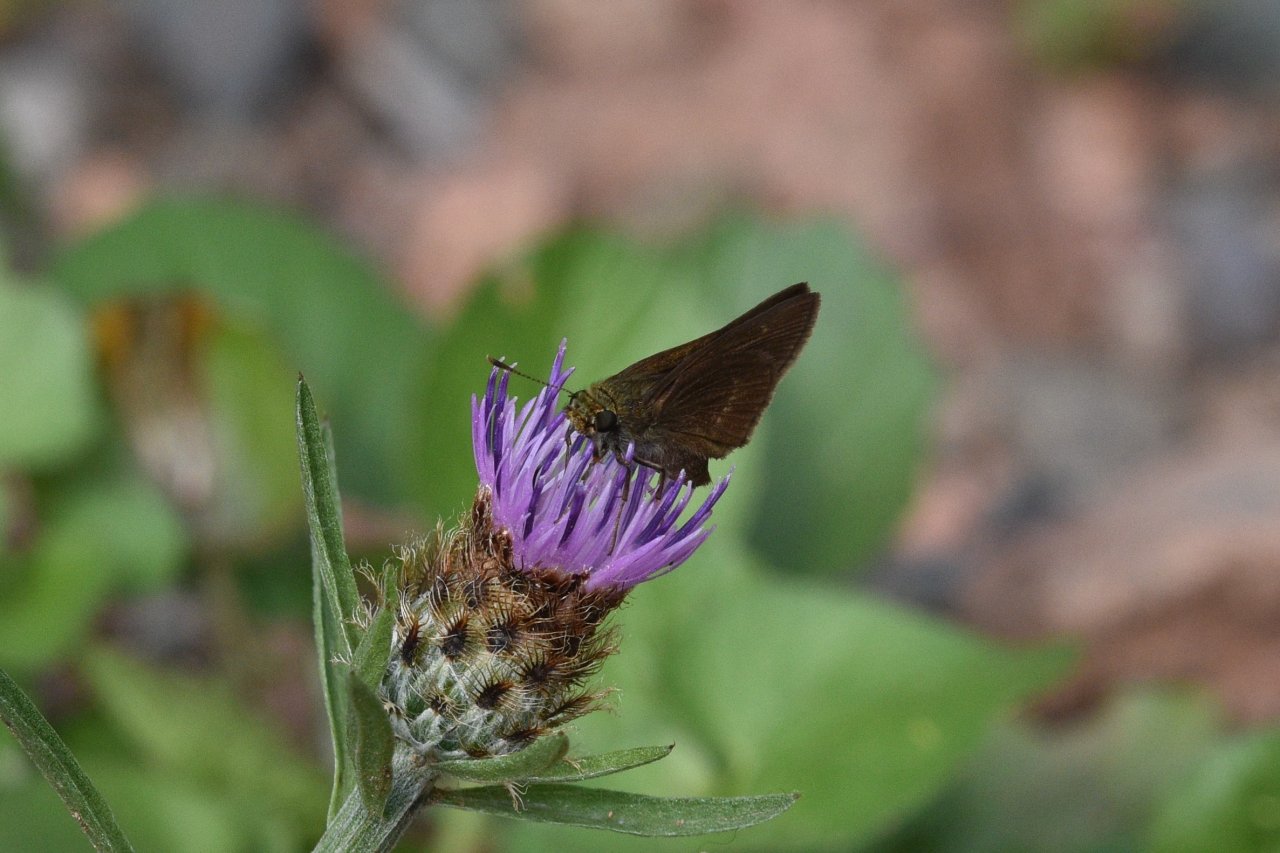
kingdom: Animalia
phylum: Arthropoda
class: Insecta
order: Lepidoptera
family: Hesperiidae
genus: Euphyes
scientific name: Euphyes vestris
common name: Dun Skipper
